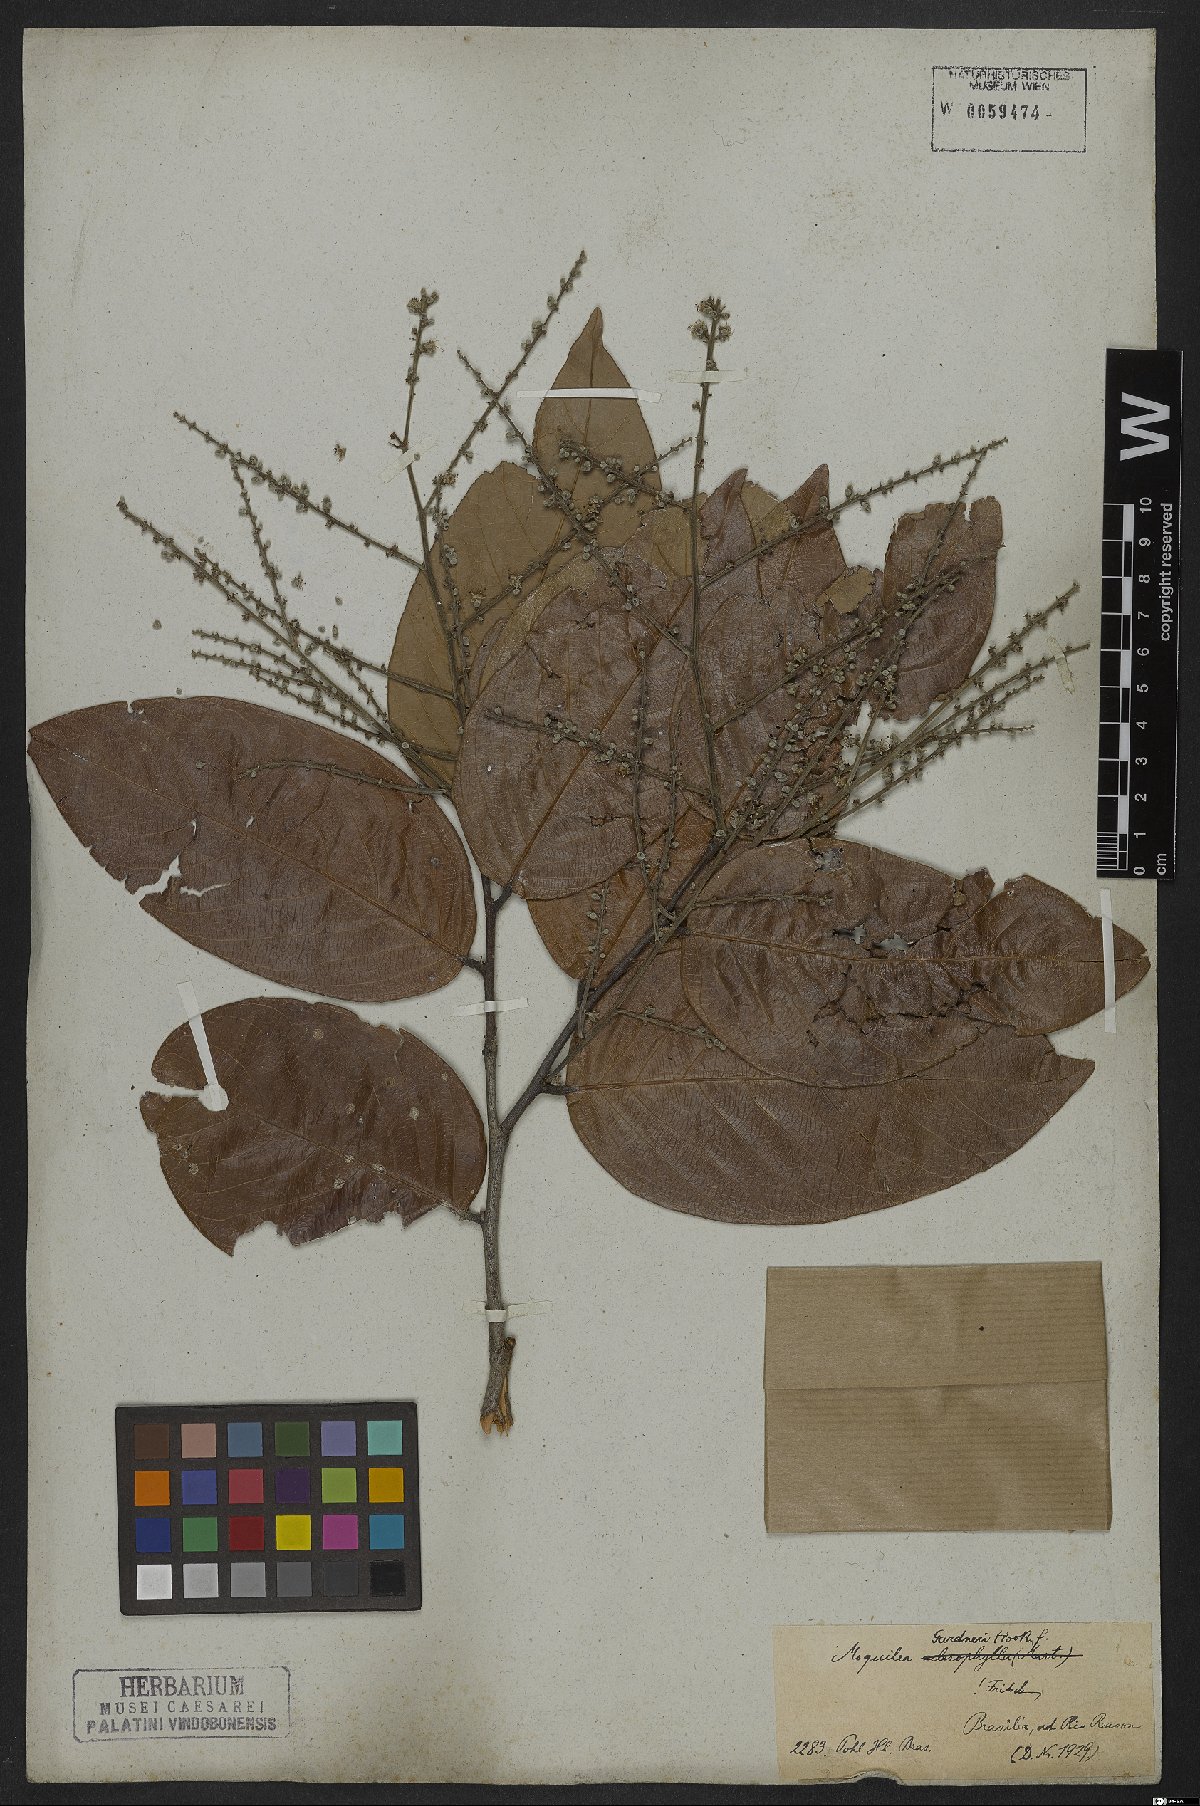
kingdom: Plantae
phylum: Tracheophyta
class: Magnoliopsida
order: Malpighiales
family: Chrysobalanaceae
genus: Leptobalanus
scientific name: Leptobalanus gardneri
